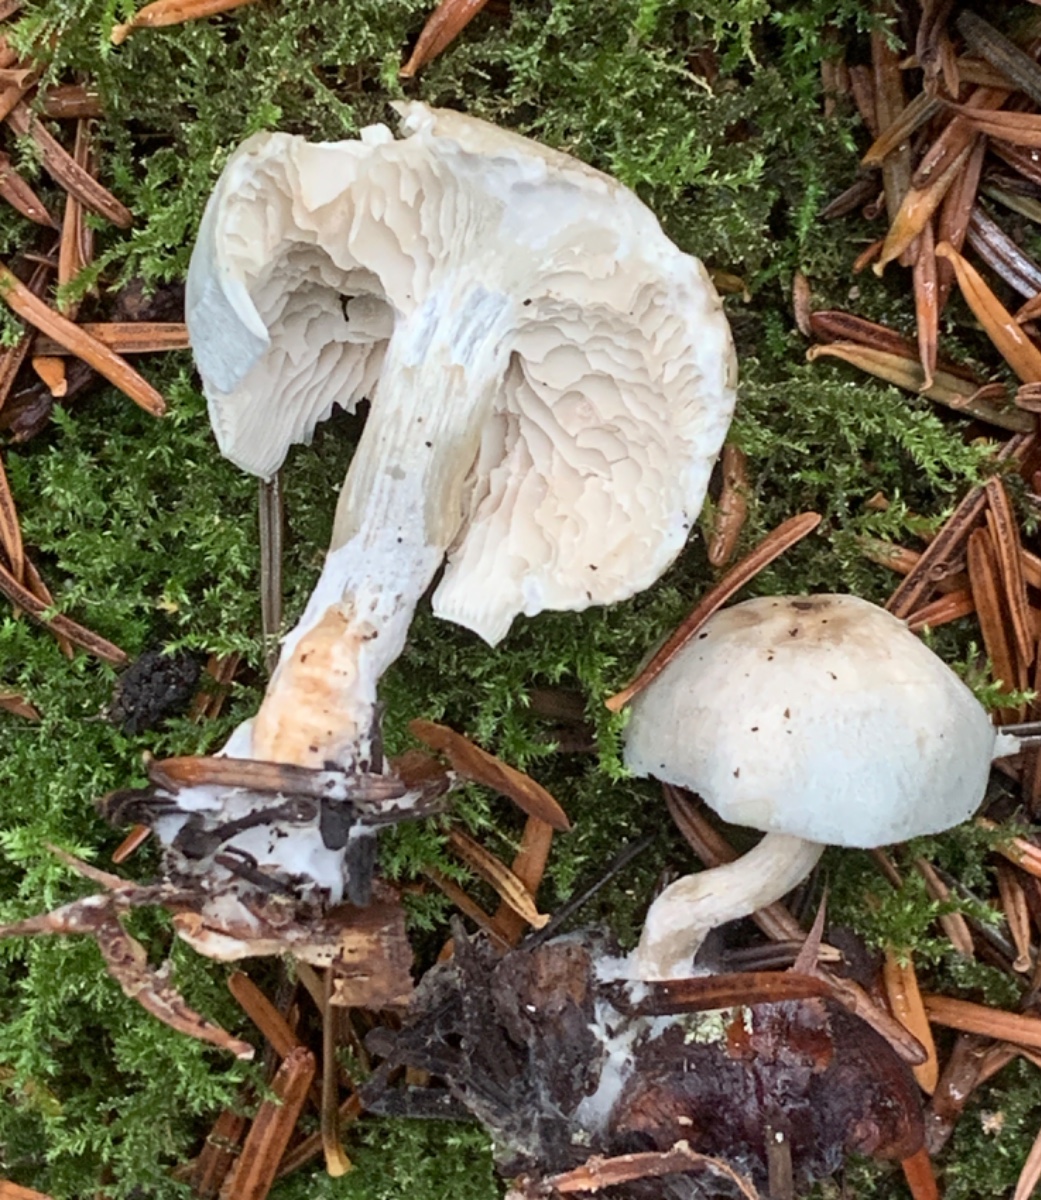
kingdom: Fungi
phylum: Basidiomycota
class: Agaricomycetes
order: Agaricales
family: Tricholomataceae
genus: Clitocybe
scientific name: Clitocybe odora
